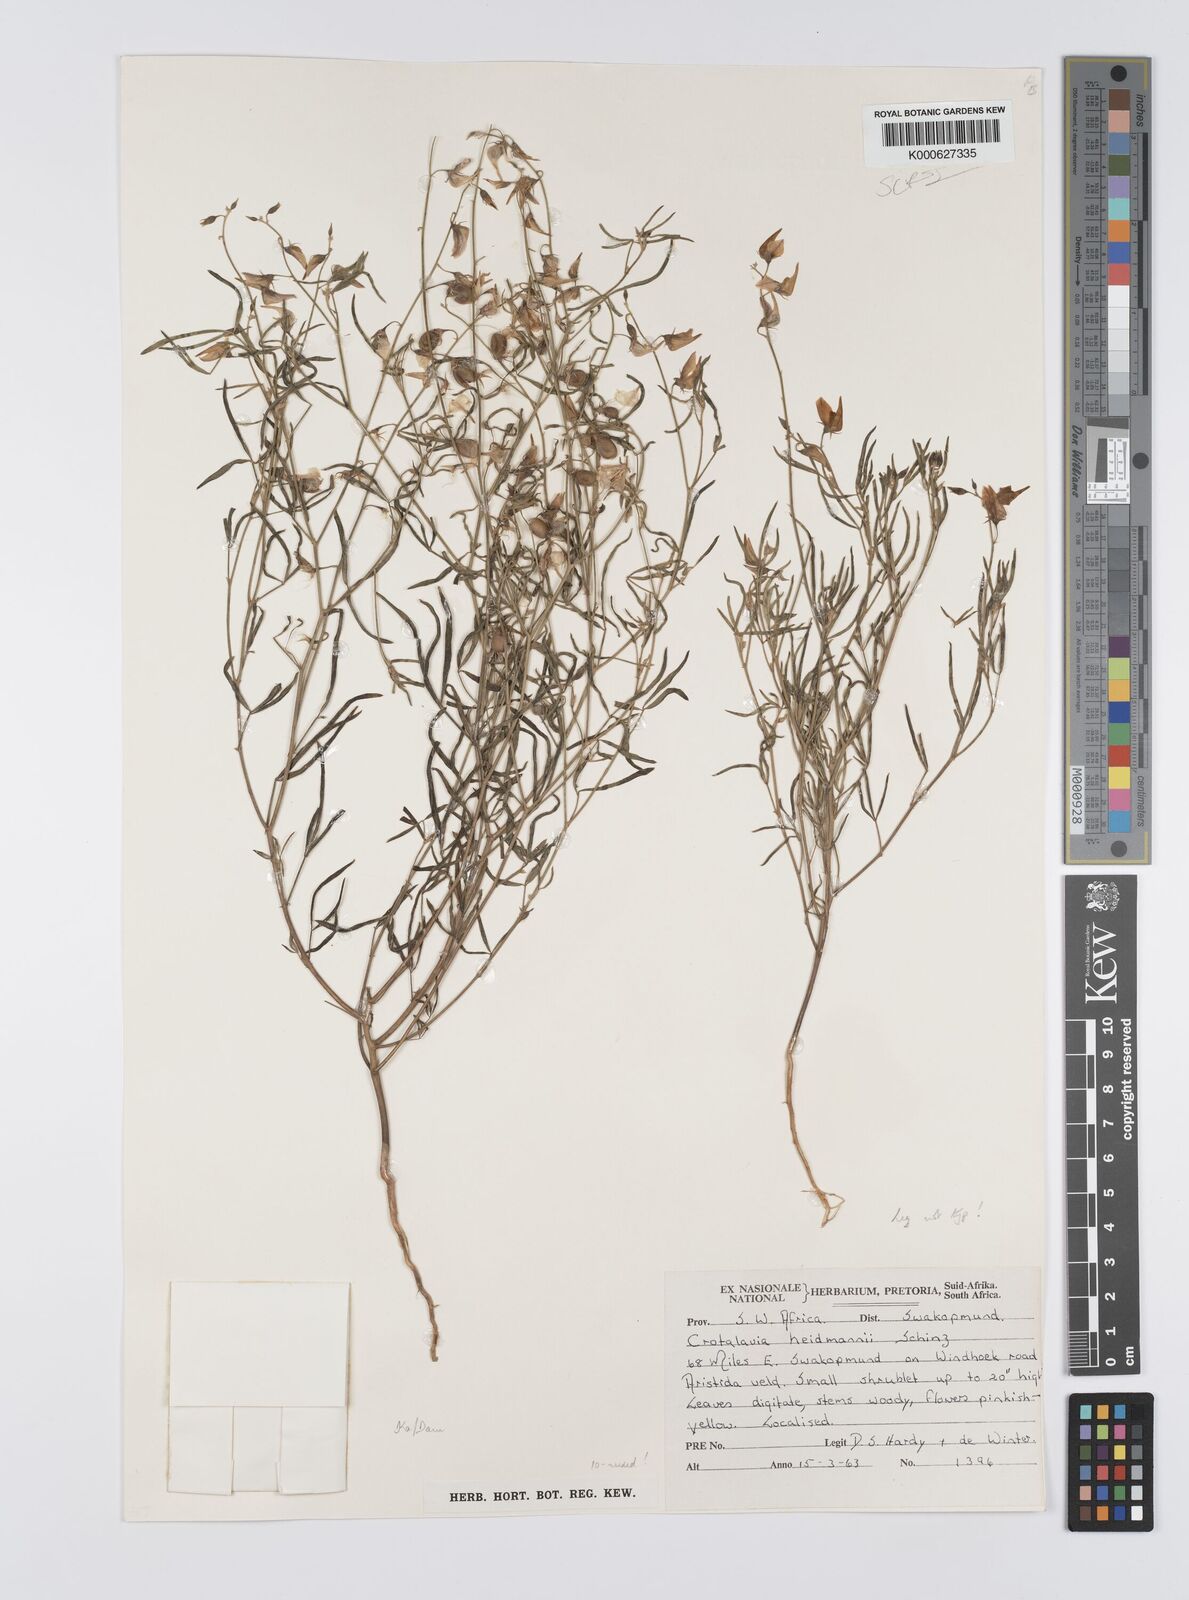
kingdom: Plantae
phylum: Tracheophyta
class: Magnoliopsida
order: Fabales
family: Fabaceae
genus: Crotalaria
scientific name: Crotalaria heidmannii
